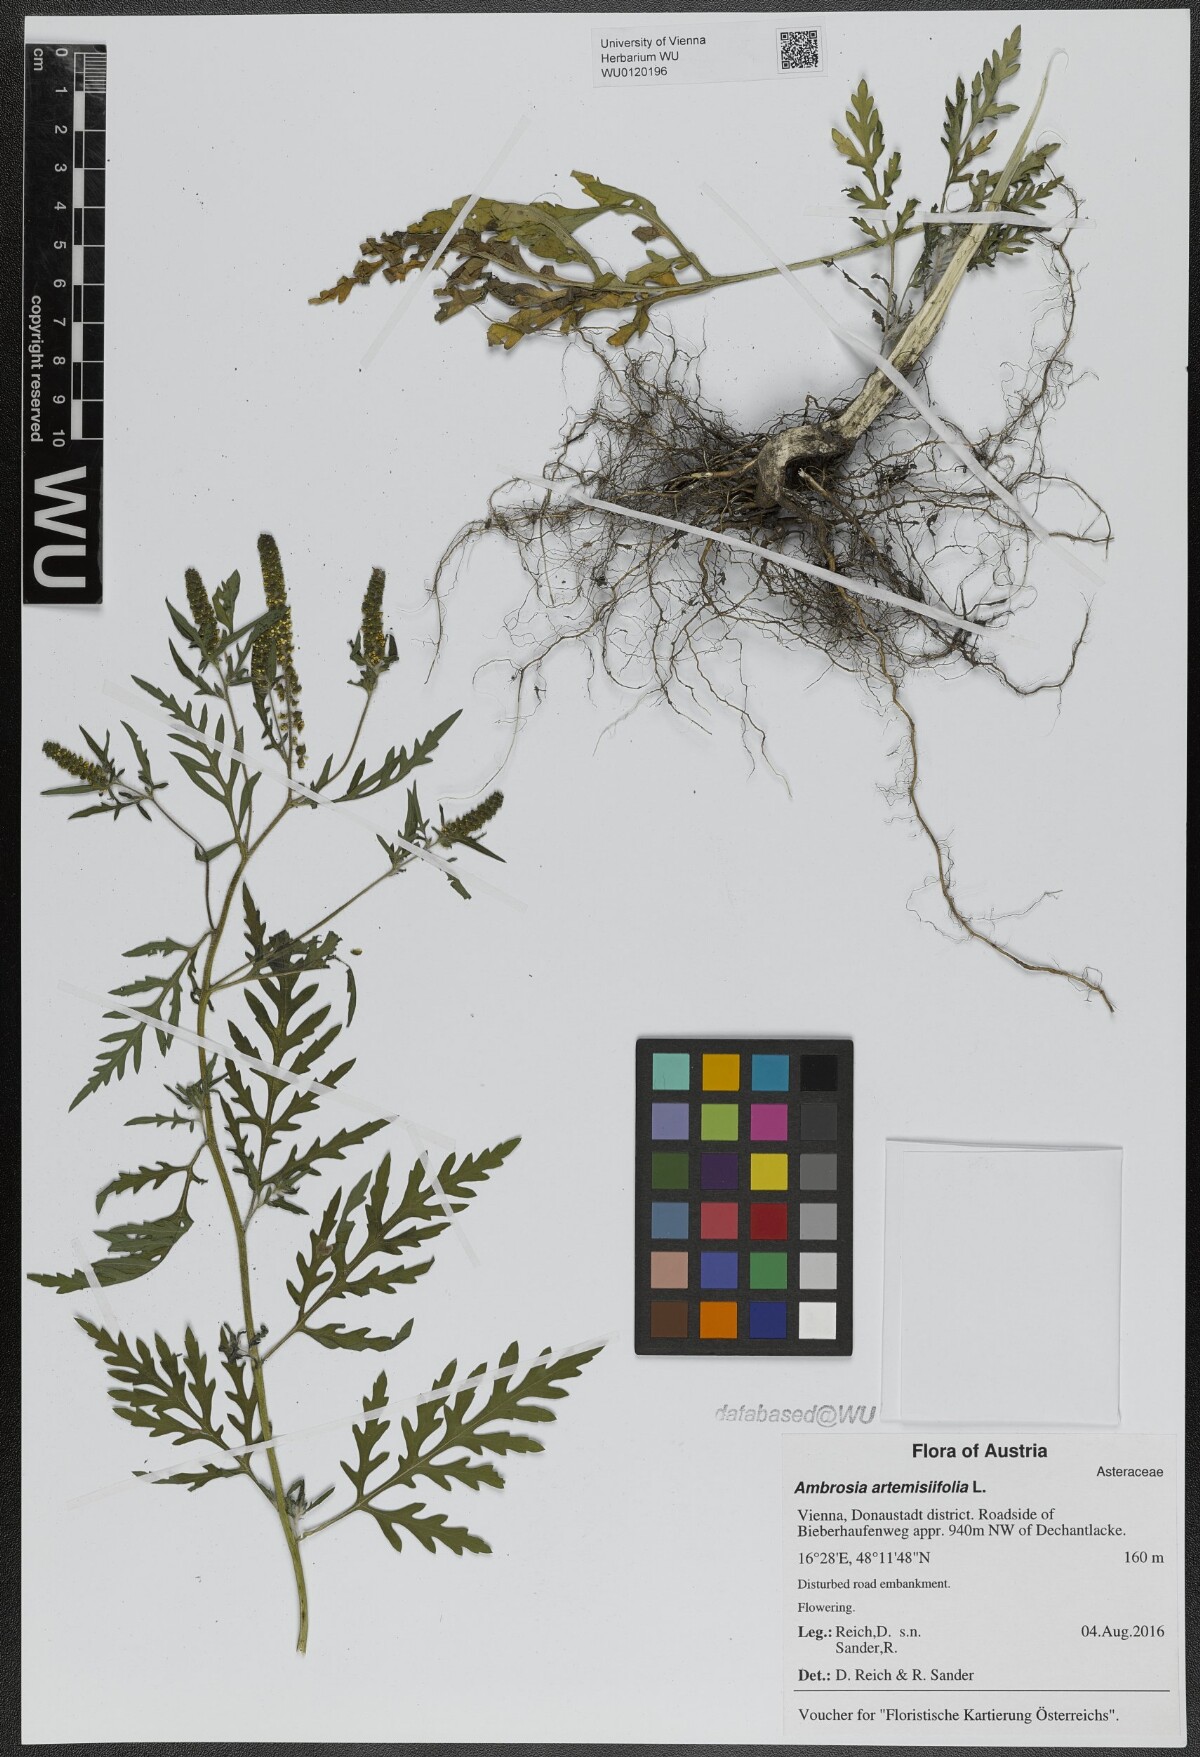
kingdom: Plantae
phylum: Tracheophyta
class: Magnoliopsida
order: Asterales
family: Asteraceae
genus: Ambrosia
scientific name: Ambrosia artemisiifolia
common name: Annual ragweed
